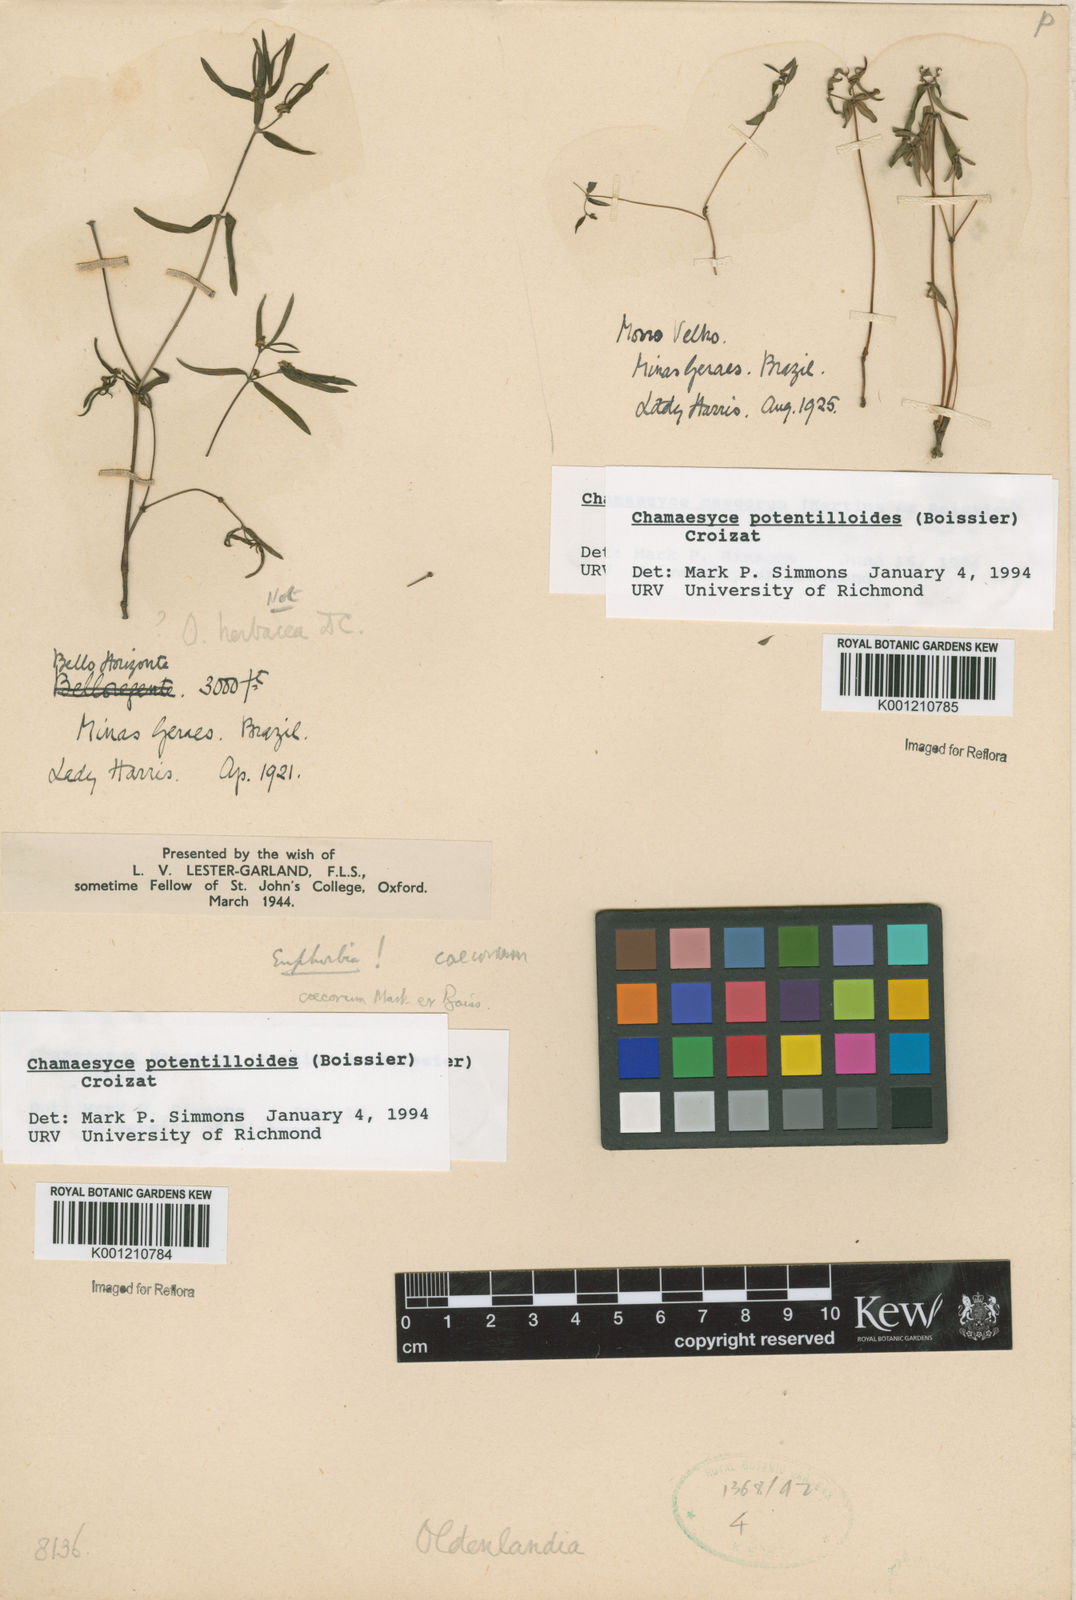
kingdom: Plantae
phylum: Tracheophyta
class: Magnoliopsida
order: Malpighiales
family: Euphorbiaceae
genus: Euphorbia
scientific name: Euphorbia potentilloides
